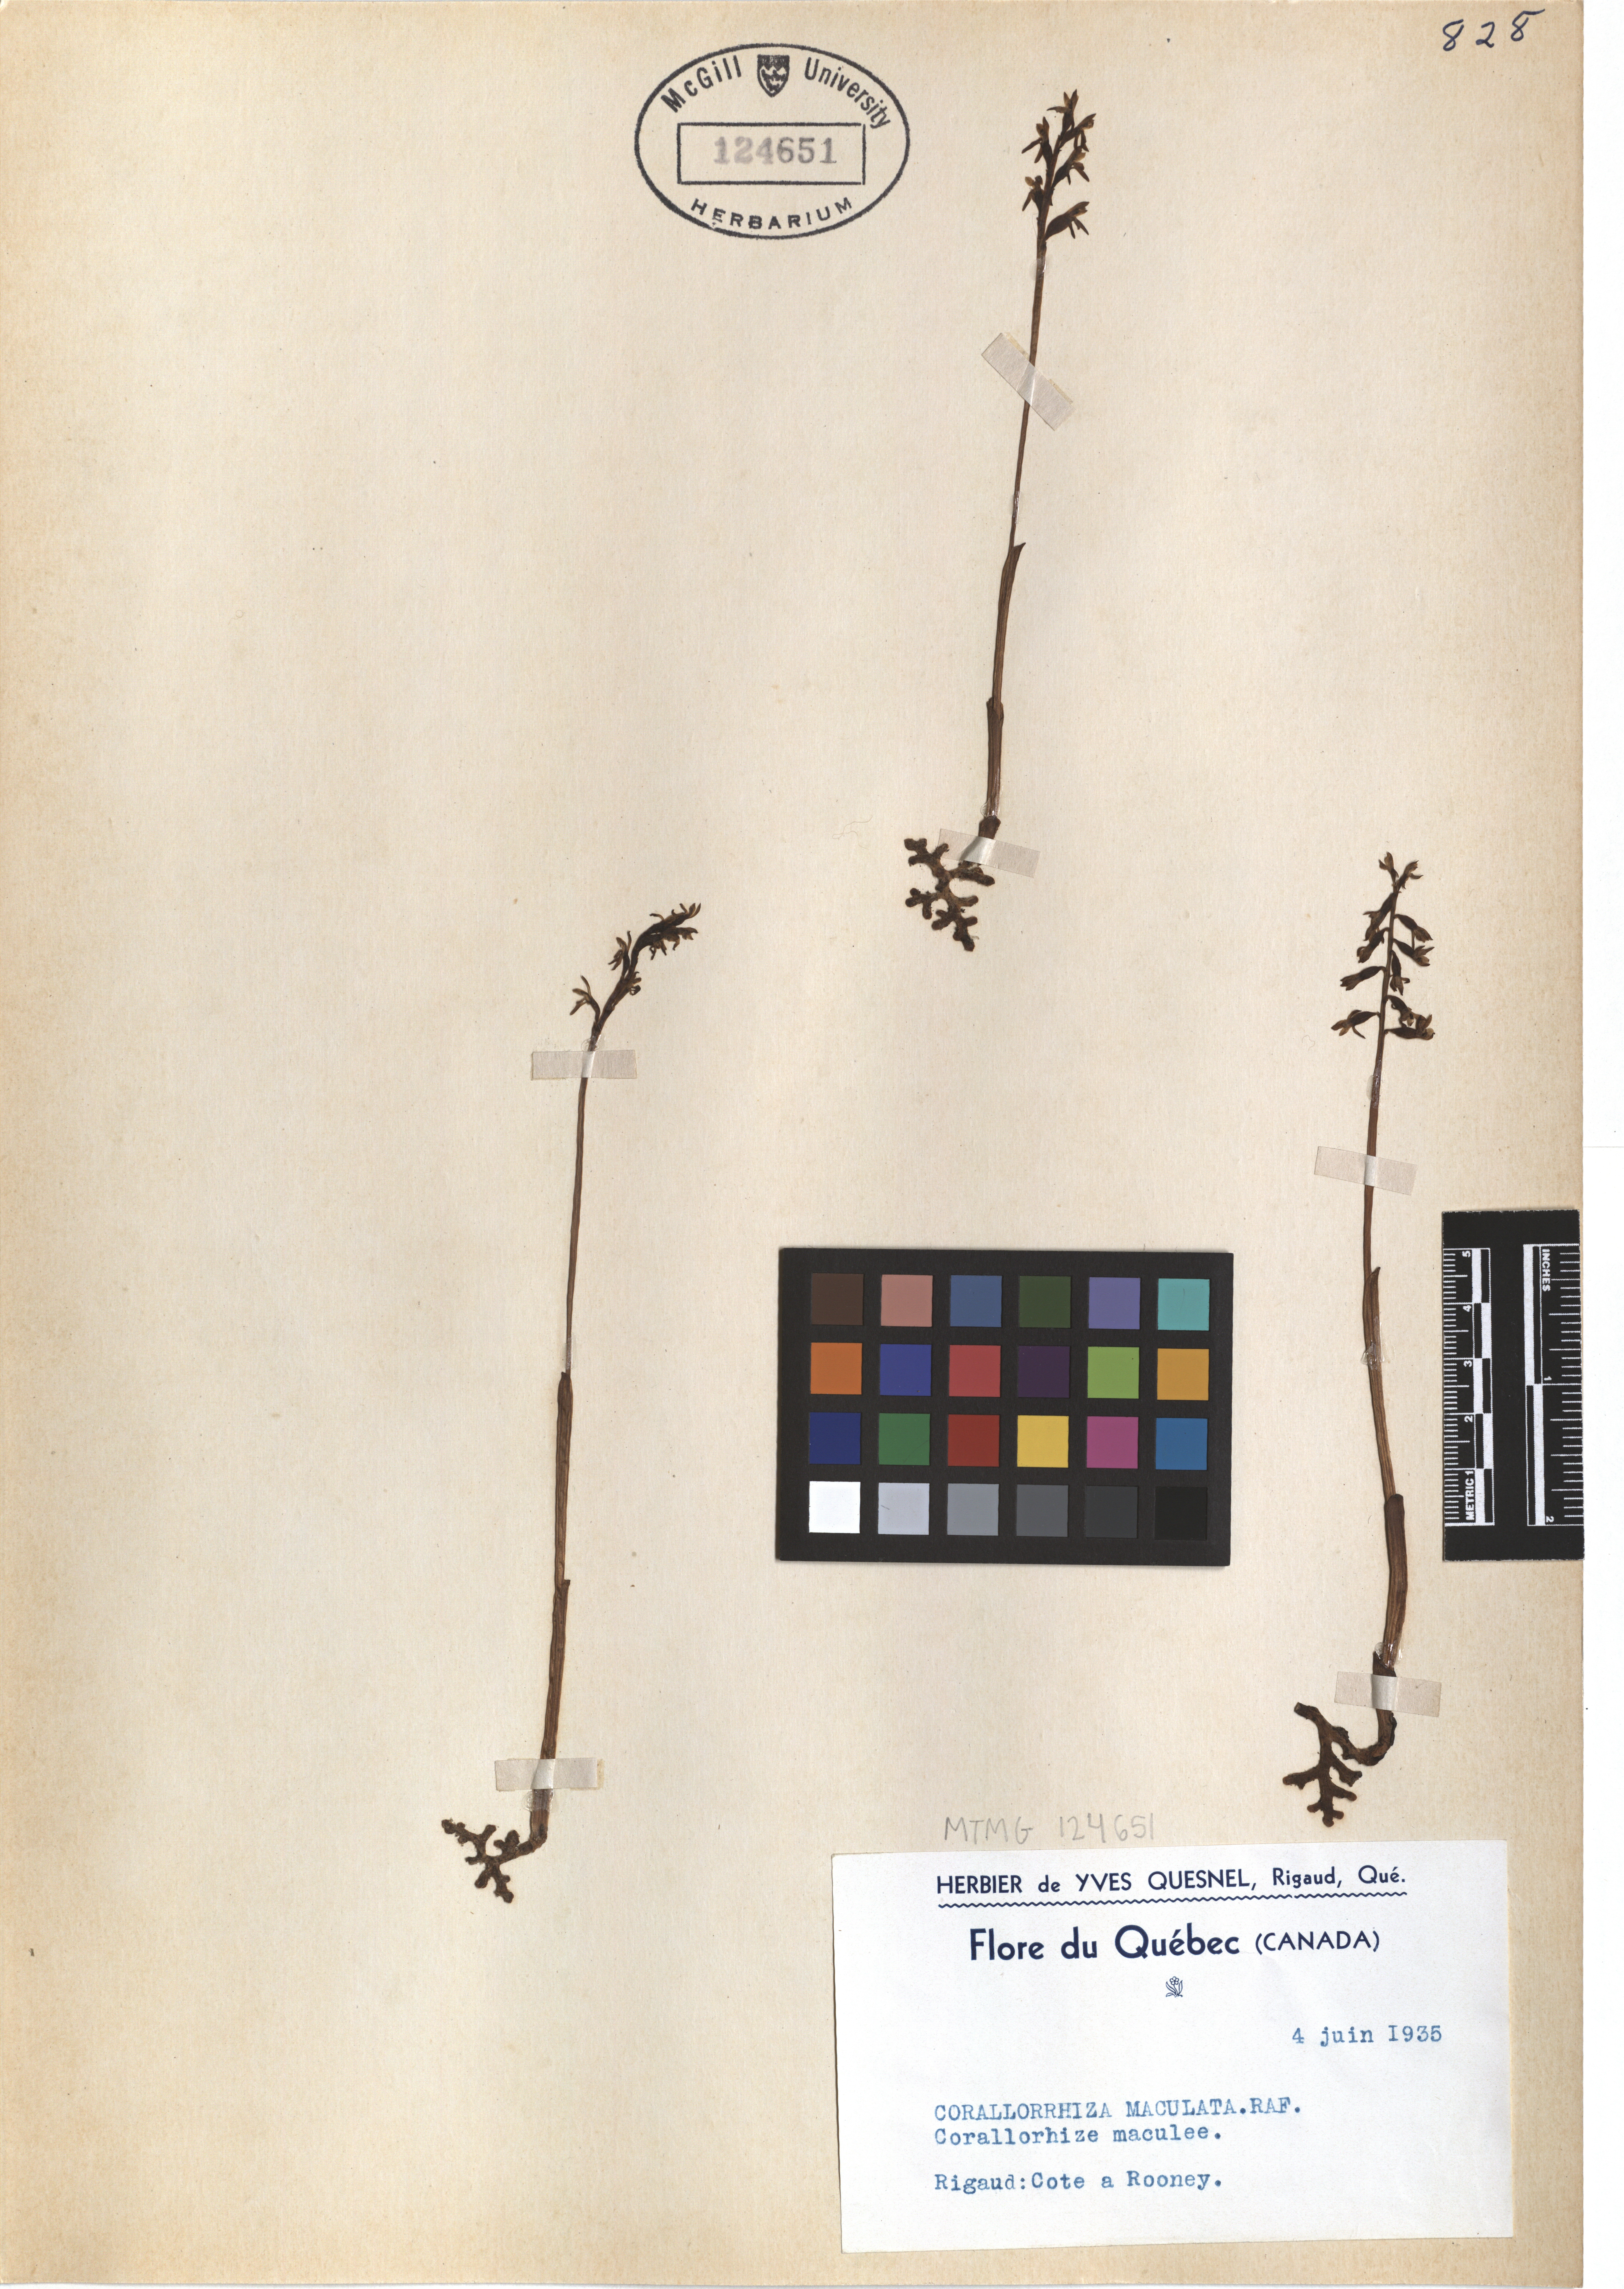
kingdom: Plantae
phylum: Tracheophyta
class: Liliopsida
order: Asparagales
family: Orchidaceae
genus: Corallorhiza
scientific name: Corallorhiza maculata
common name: Spotted coralroot
